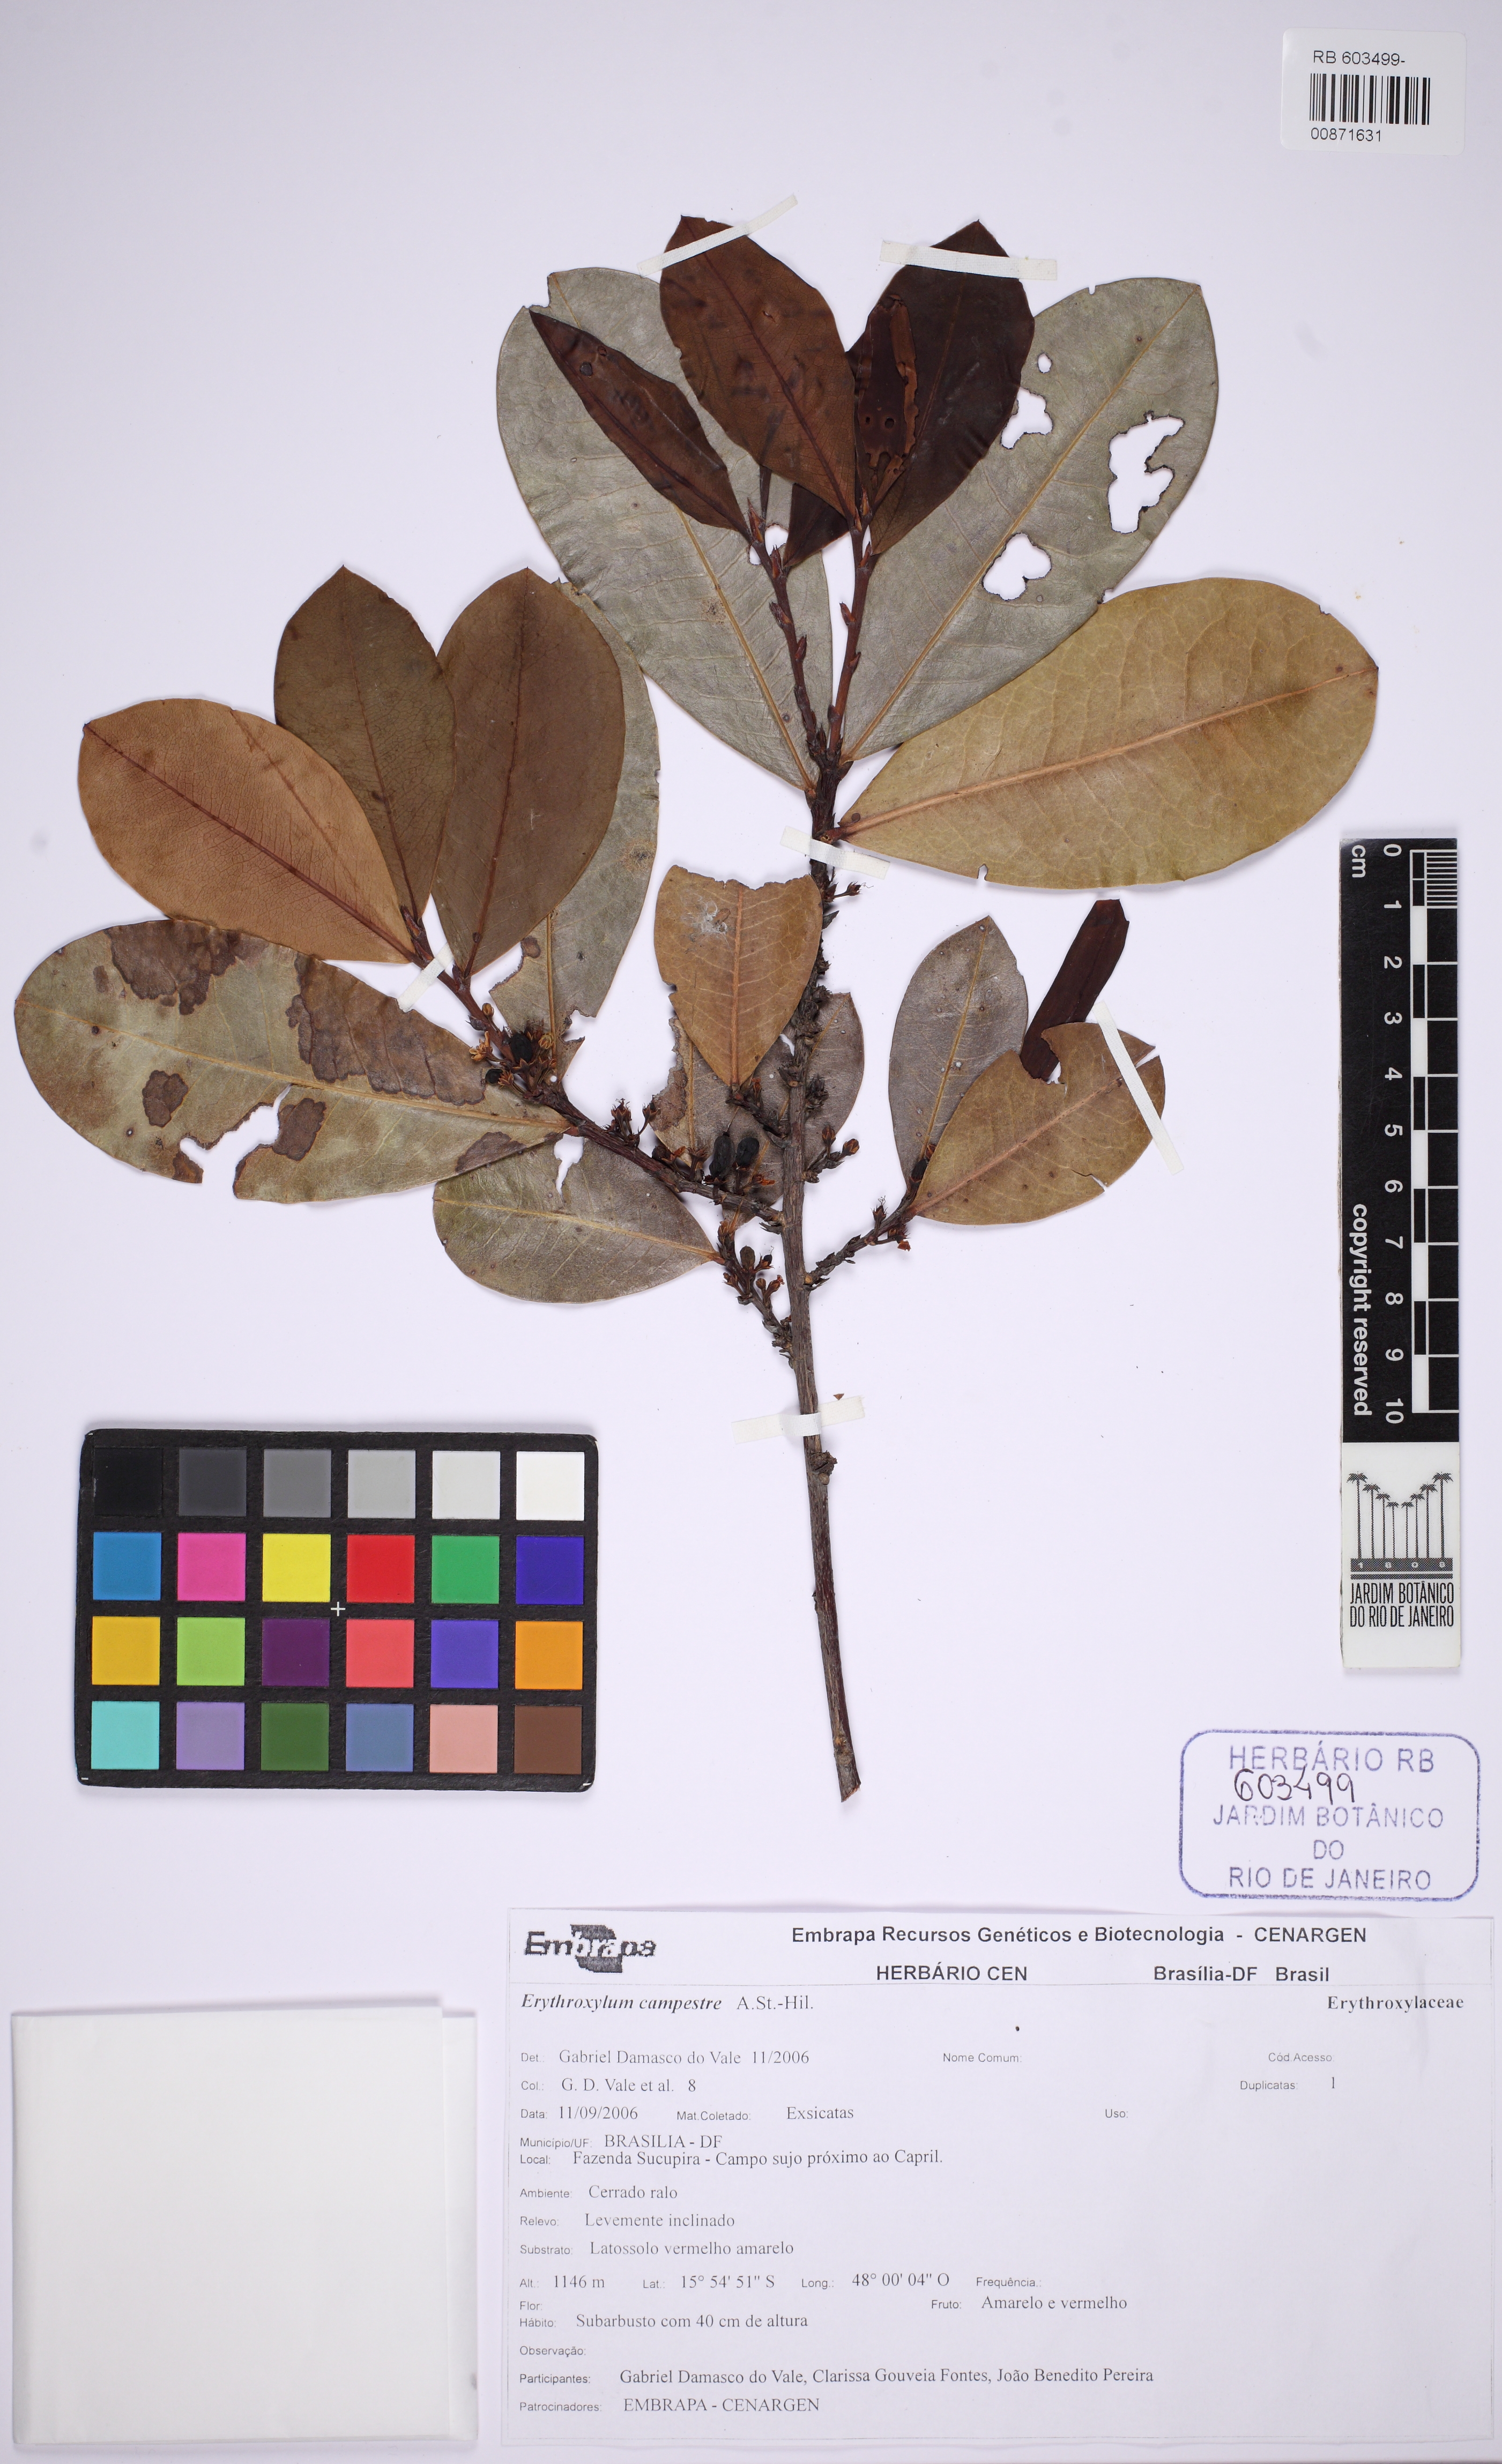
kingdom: Plantae
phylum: Tracheophyta
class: Magnoliopsida
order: Malpighiales
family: Erythroxylaceae
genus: Erythroxylum
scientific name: Erythroxylum campestre
